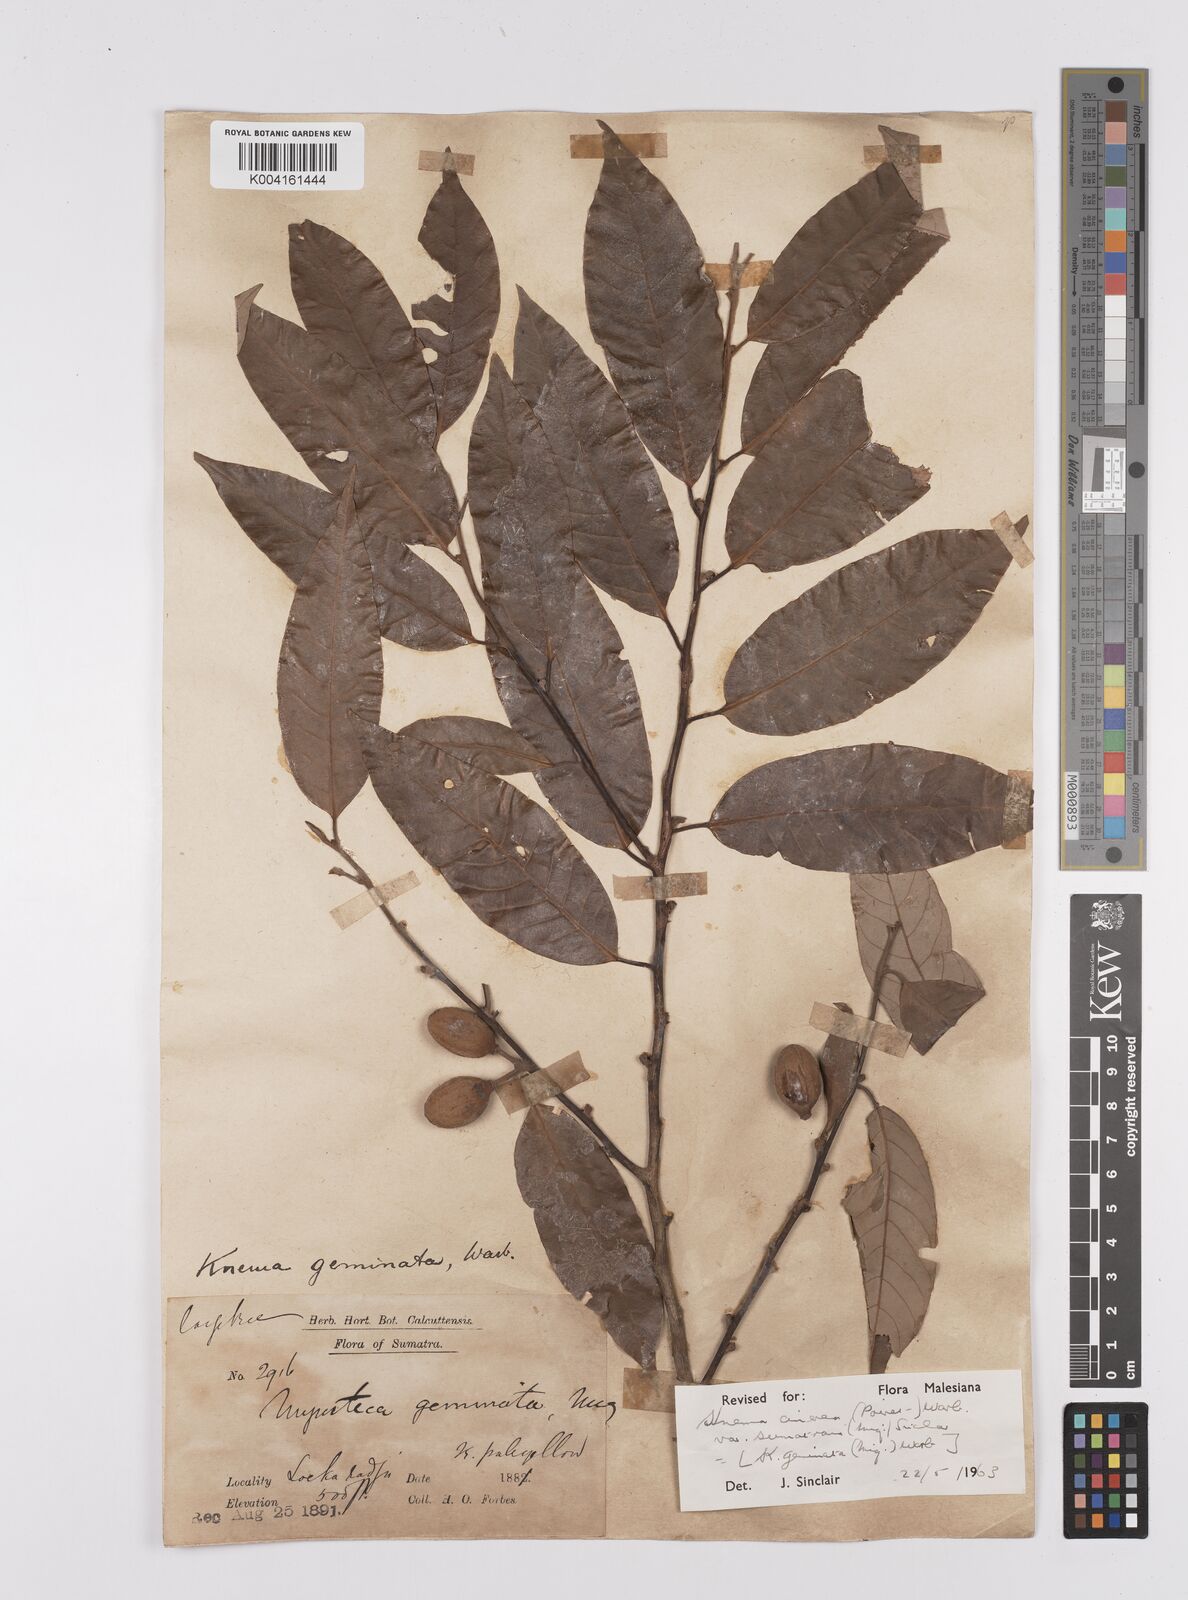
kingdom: Plantae
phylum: Tracheophyta
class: Magnoliopsida
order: Magnoliales
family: Myristicaceae
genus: Knema
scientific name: Knema
